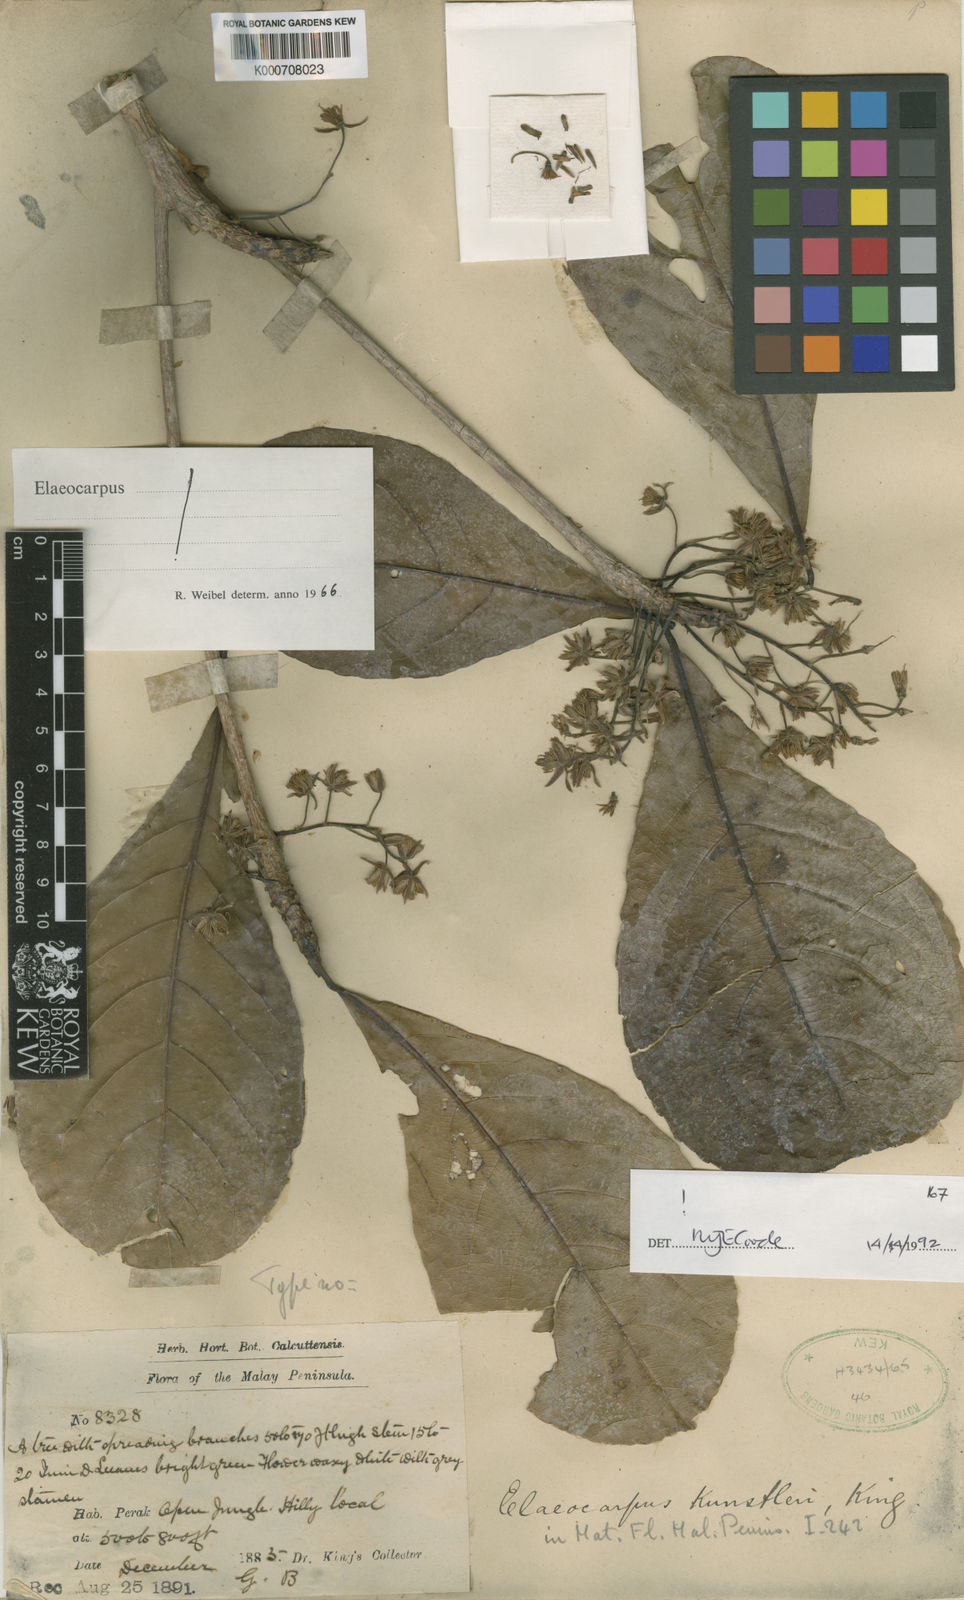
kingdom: Plantae
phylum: Tracheophyta
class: Magnoliopsida
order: Oxalidales
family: Elaeocarpaceae
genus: Elaeocarpus
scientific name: Elaeocarpus rugosus
